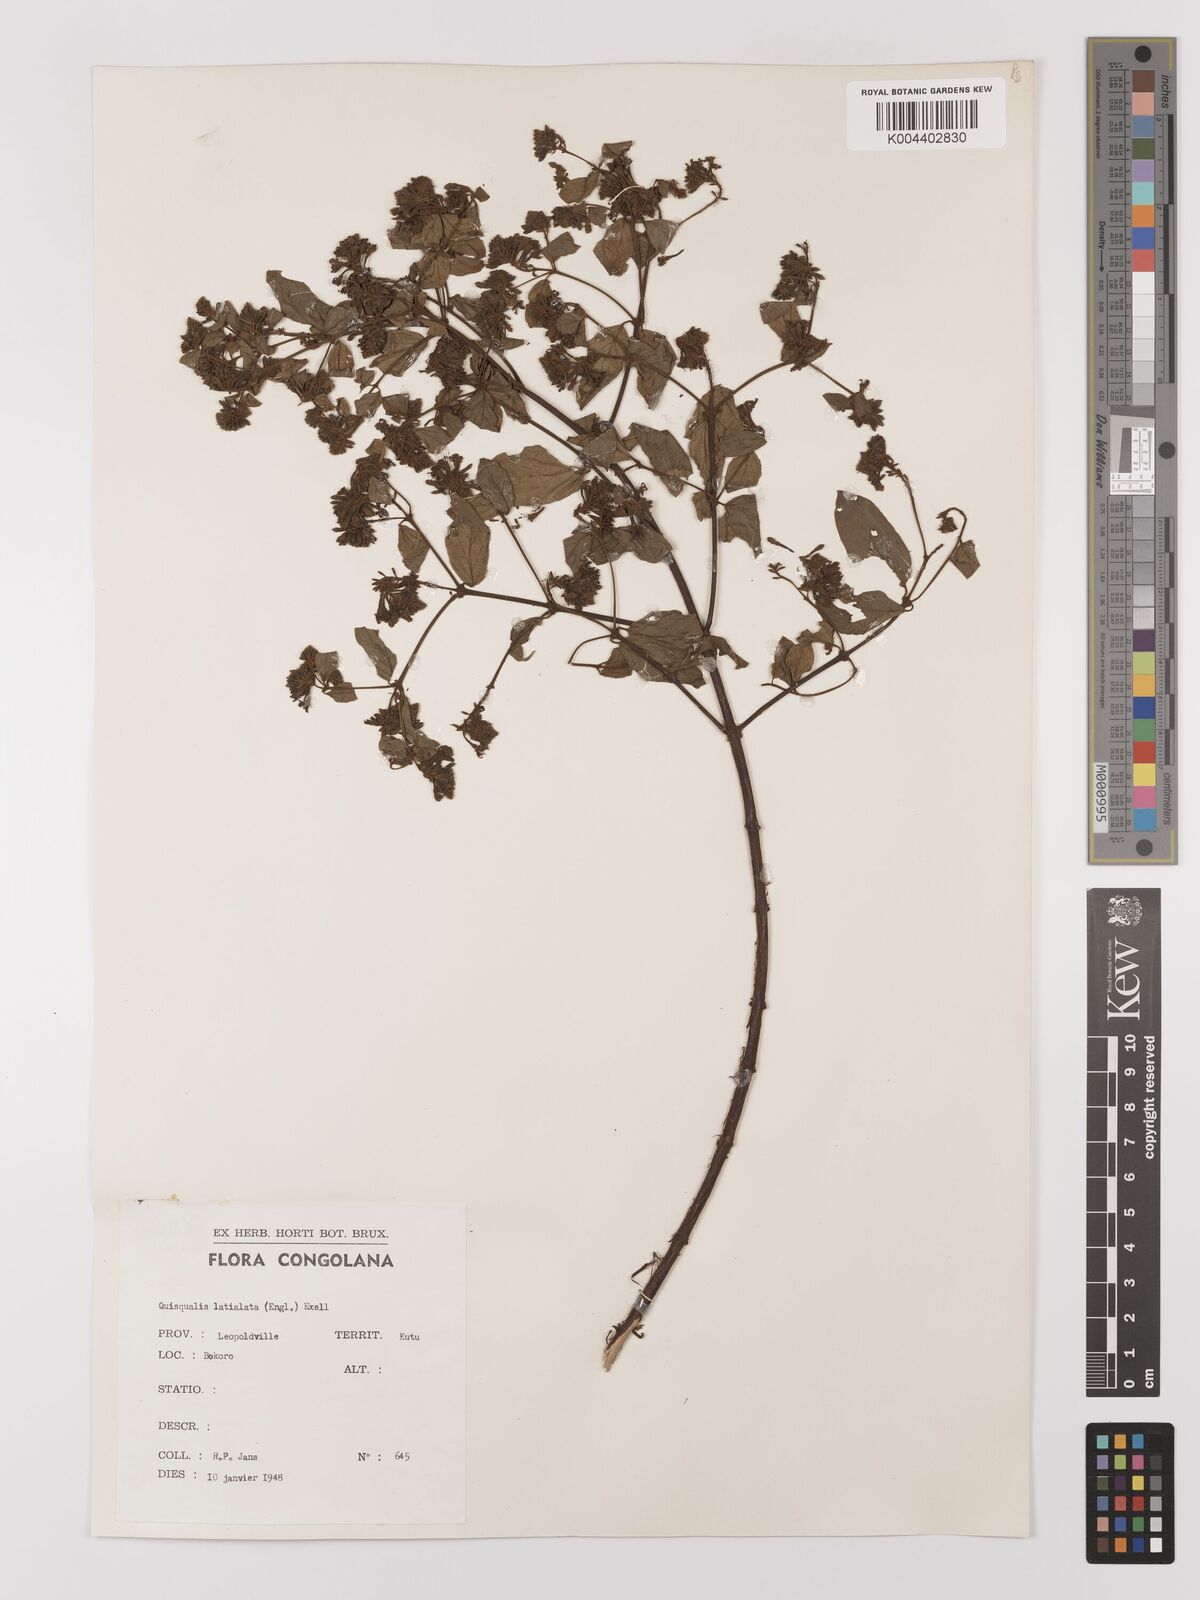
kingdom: Plantae
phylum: Tracheophyta
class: Magnoliopsida
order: Myrtales
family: Combretaceae
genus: Combretum
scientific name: Combretum latialatum
